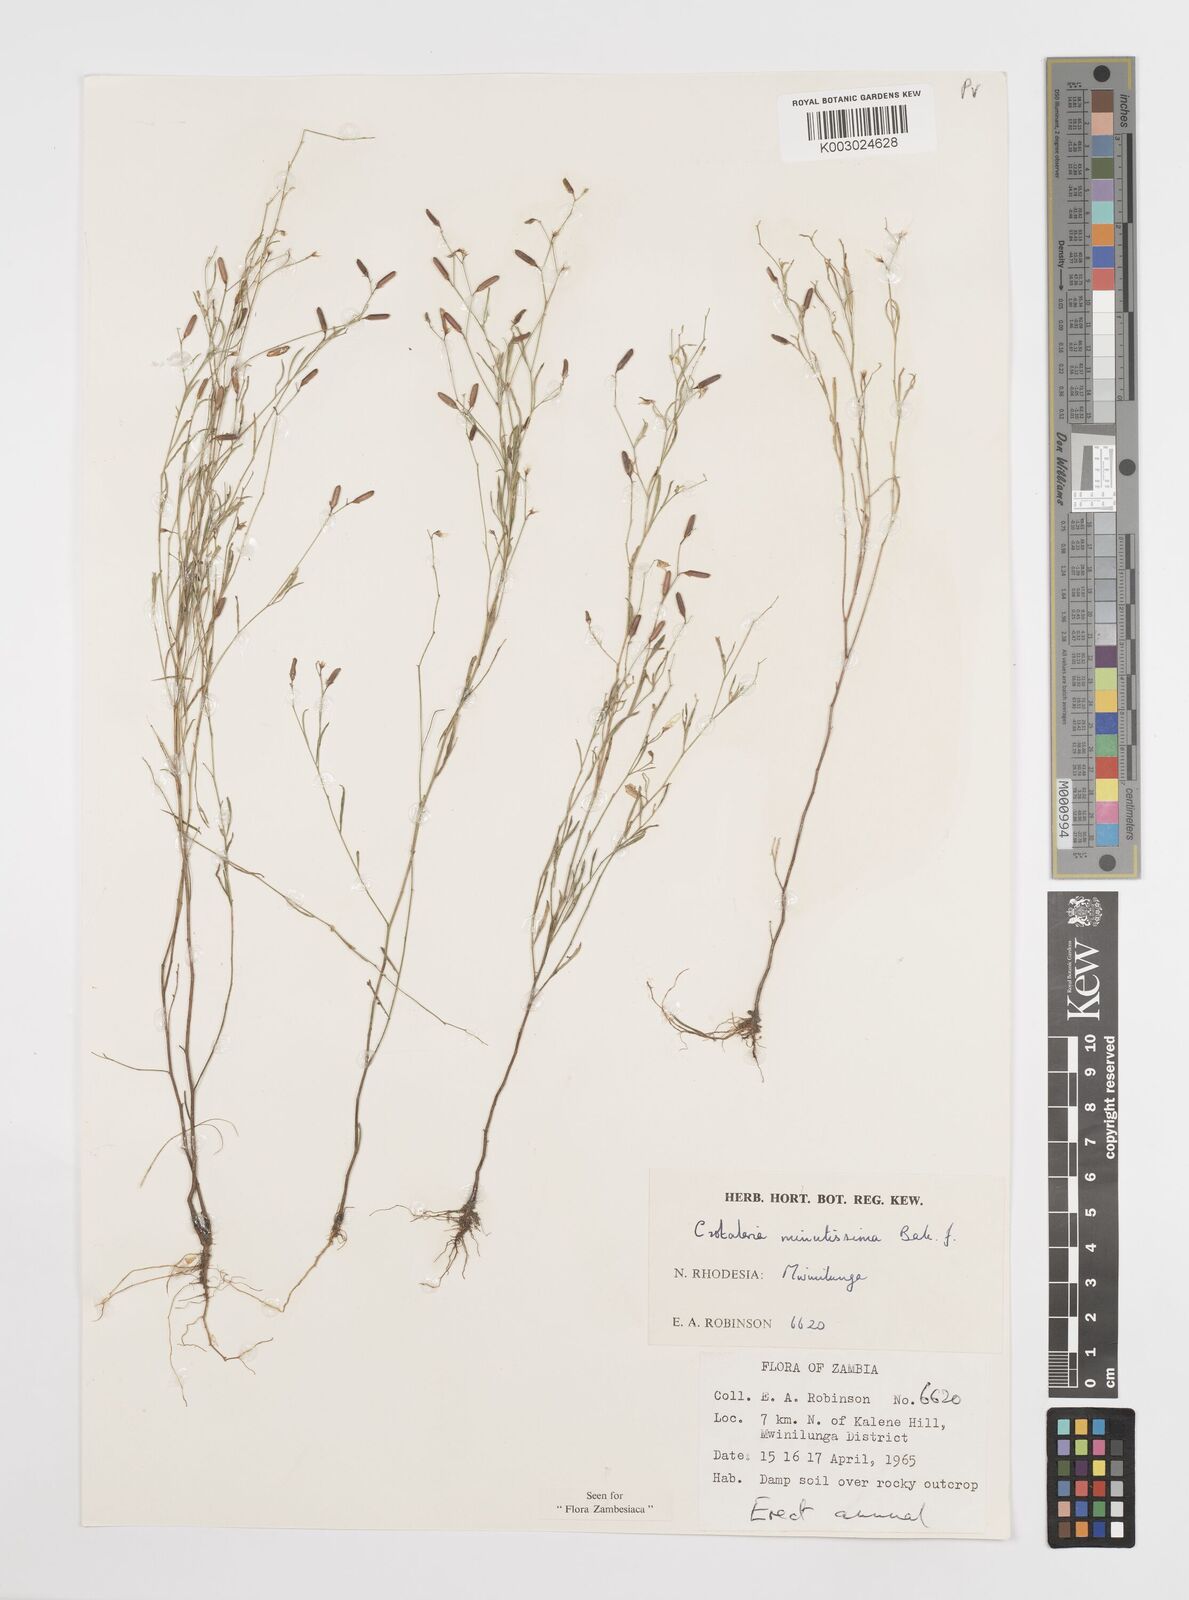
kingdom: Plantae
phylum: Tracheophyta
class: Magnoliopsida
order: Fabales
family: Fabaceae
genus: Crotalaria
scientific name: Crotalaria minutissima
